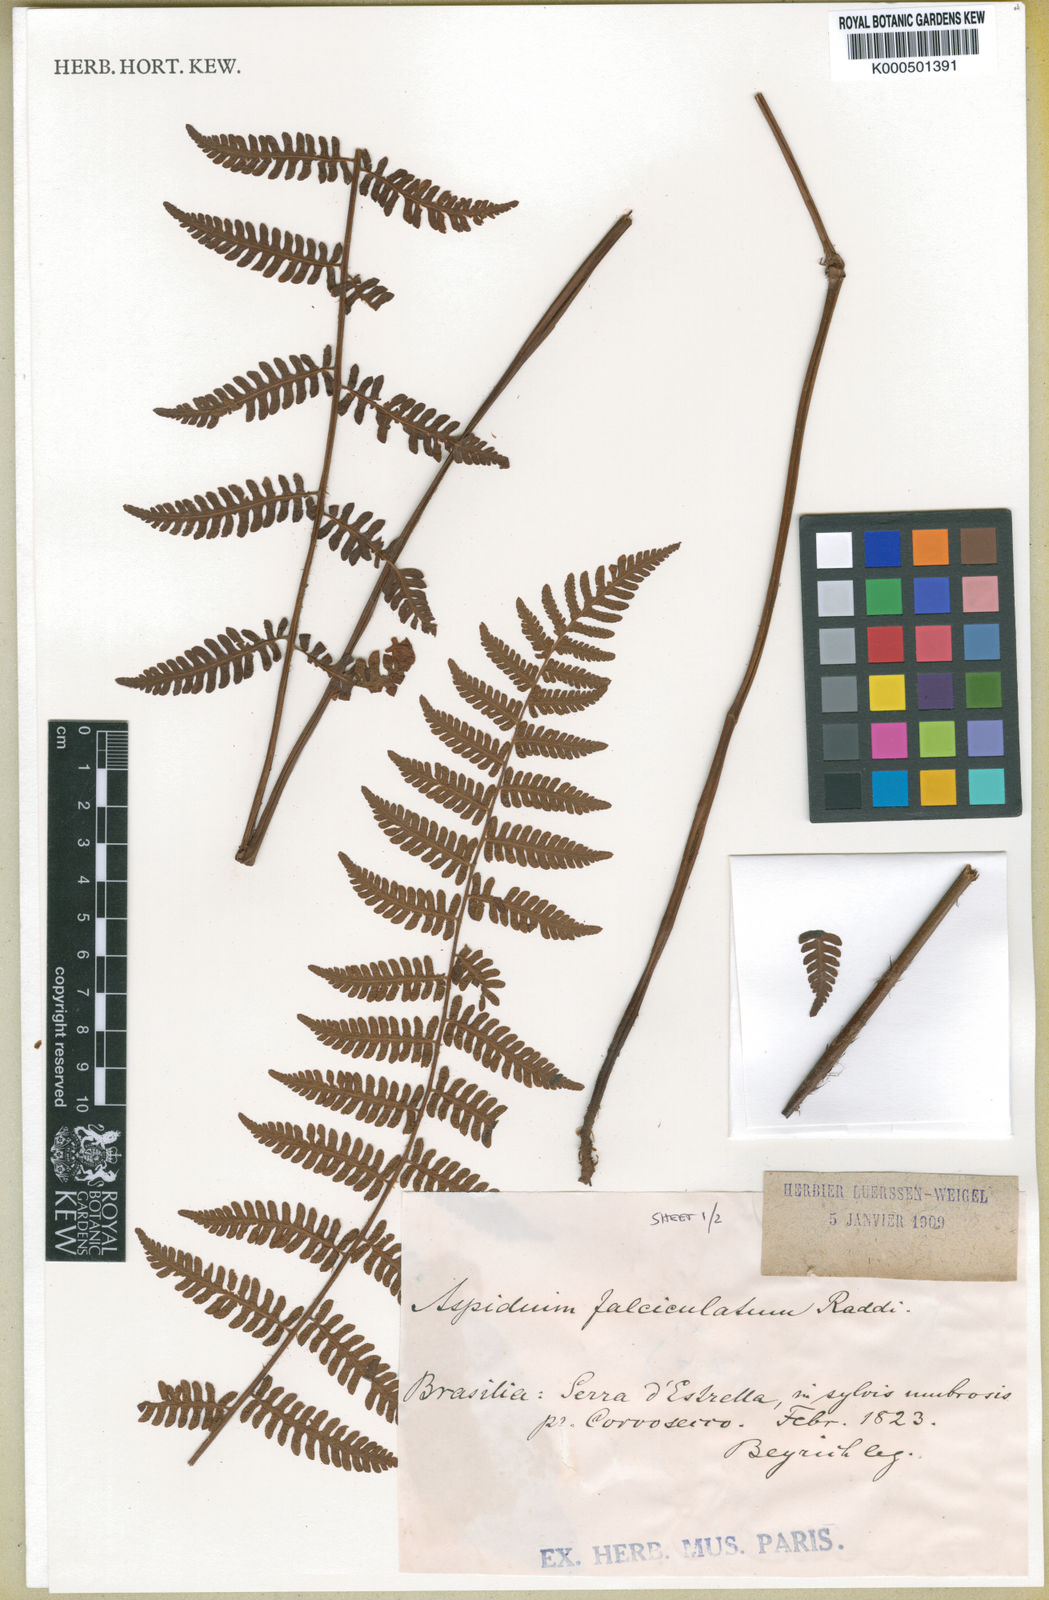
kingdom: Plantae
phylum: Tracheophyta
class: Polypodiopsida
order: Polypodiales
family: Dryopteridaceae
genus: Ctenitis
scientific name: Ctenitis falciculata
